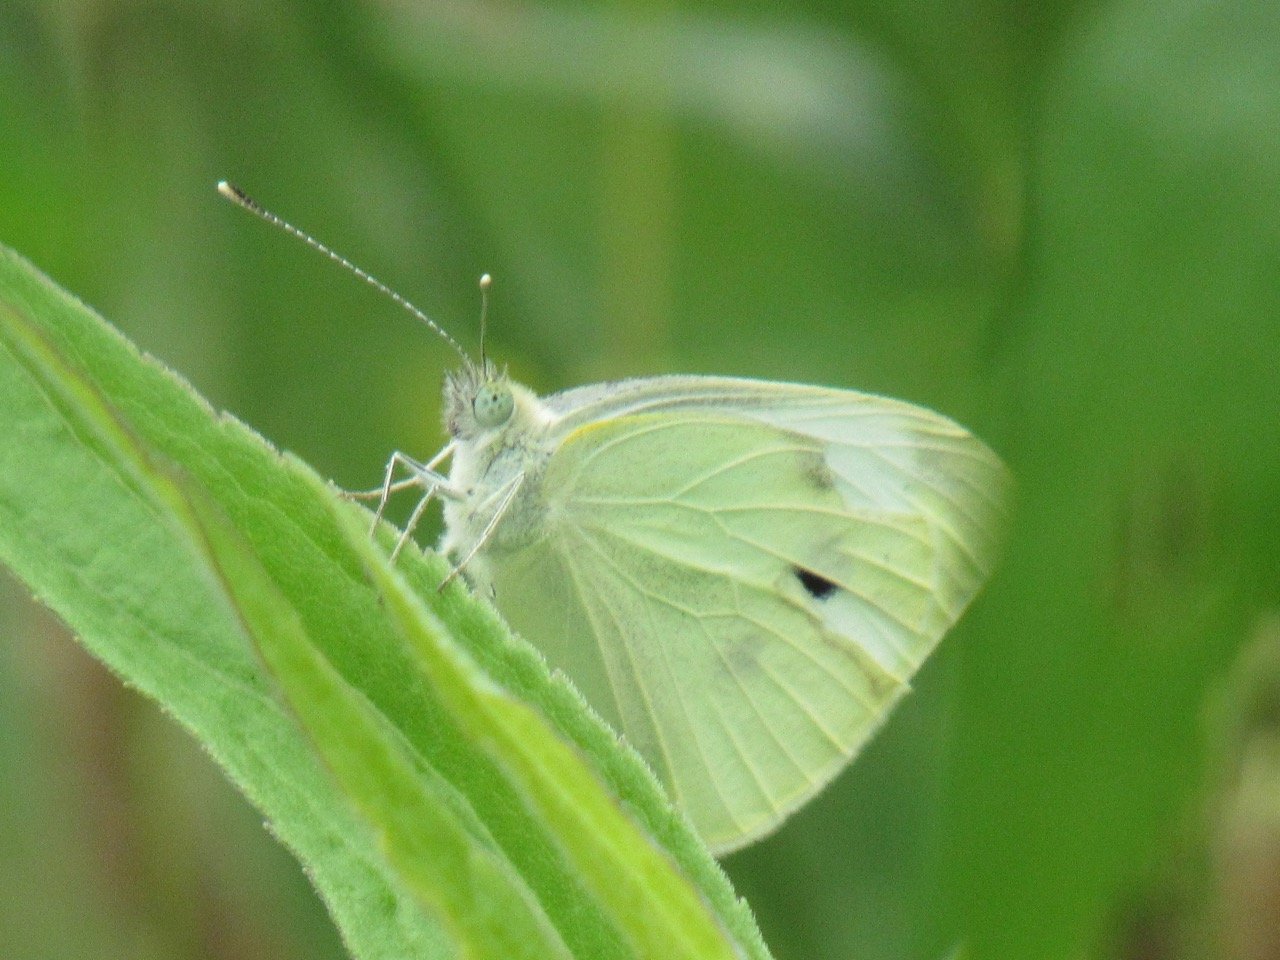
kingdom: Animalia
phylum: Arthropoda
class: Insecta
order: Lepidoptera
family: Pieridae
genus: Pieris
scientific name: Pieris rapae
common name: Cabbage White
